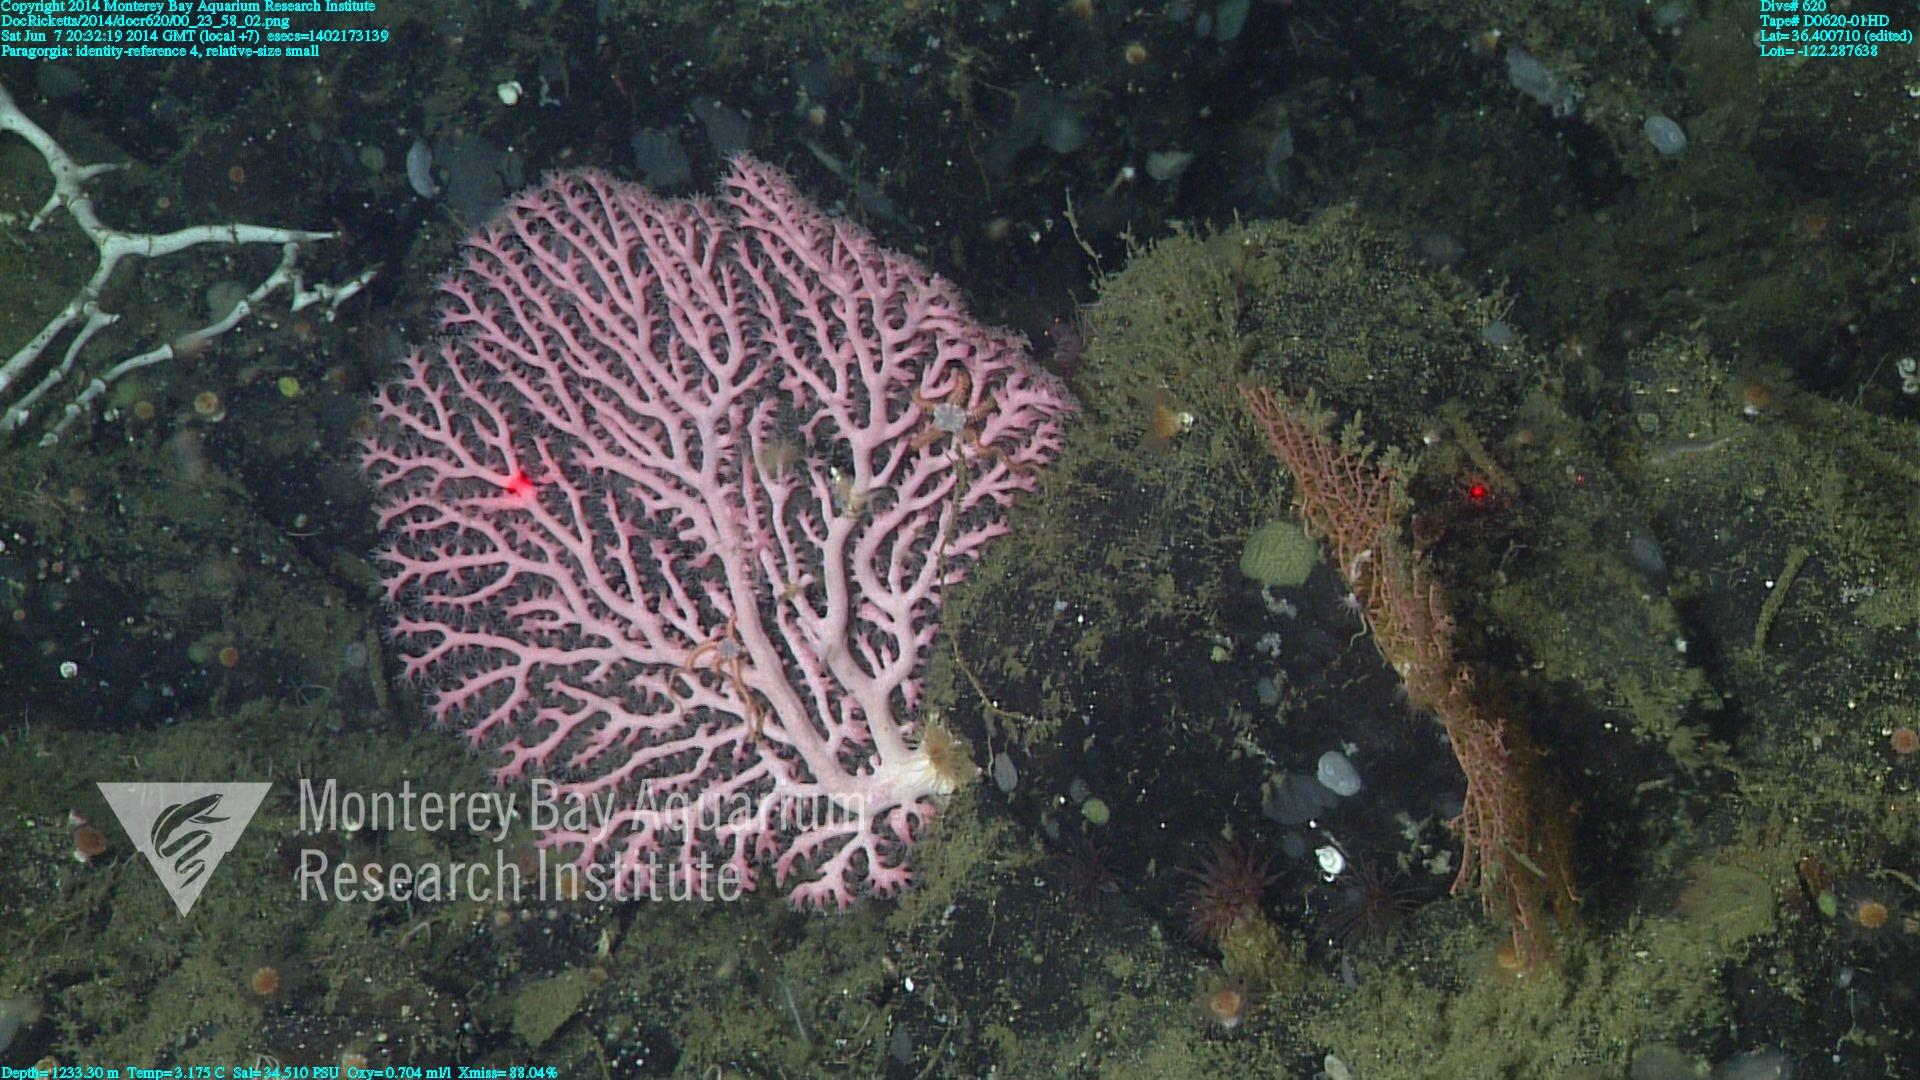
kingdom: Animalia
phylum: Cnidaria
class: Anthozoa
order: Scleralcyonacea
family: Coralliidae
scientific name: Coralliidae
